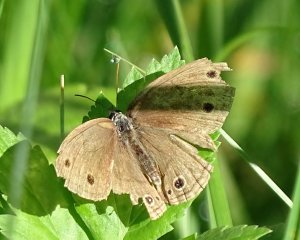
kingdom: Animalia
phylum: Arthropoda
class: Insecta
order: Lepidoptera
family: Nymphalidae
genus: Euptychia
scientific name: Euptychia cymela
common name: Little Wood Satyr
